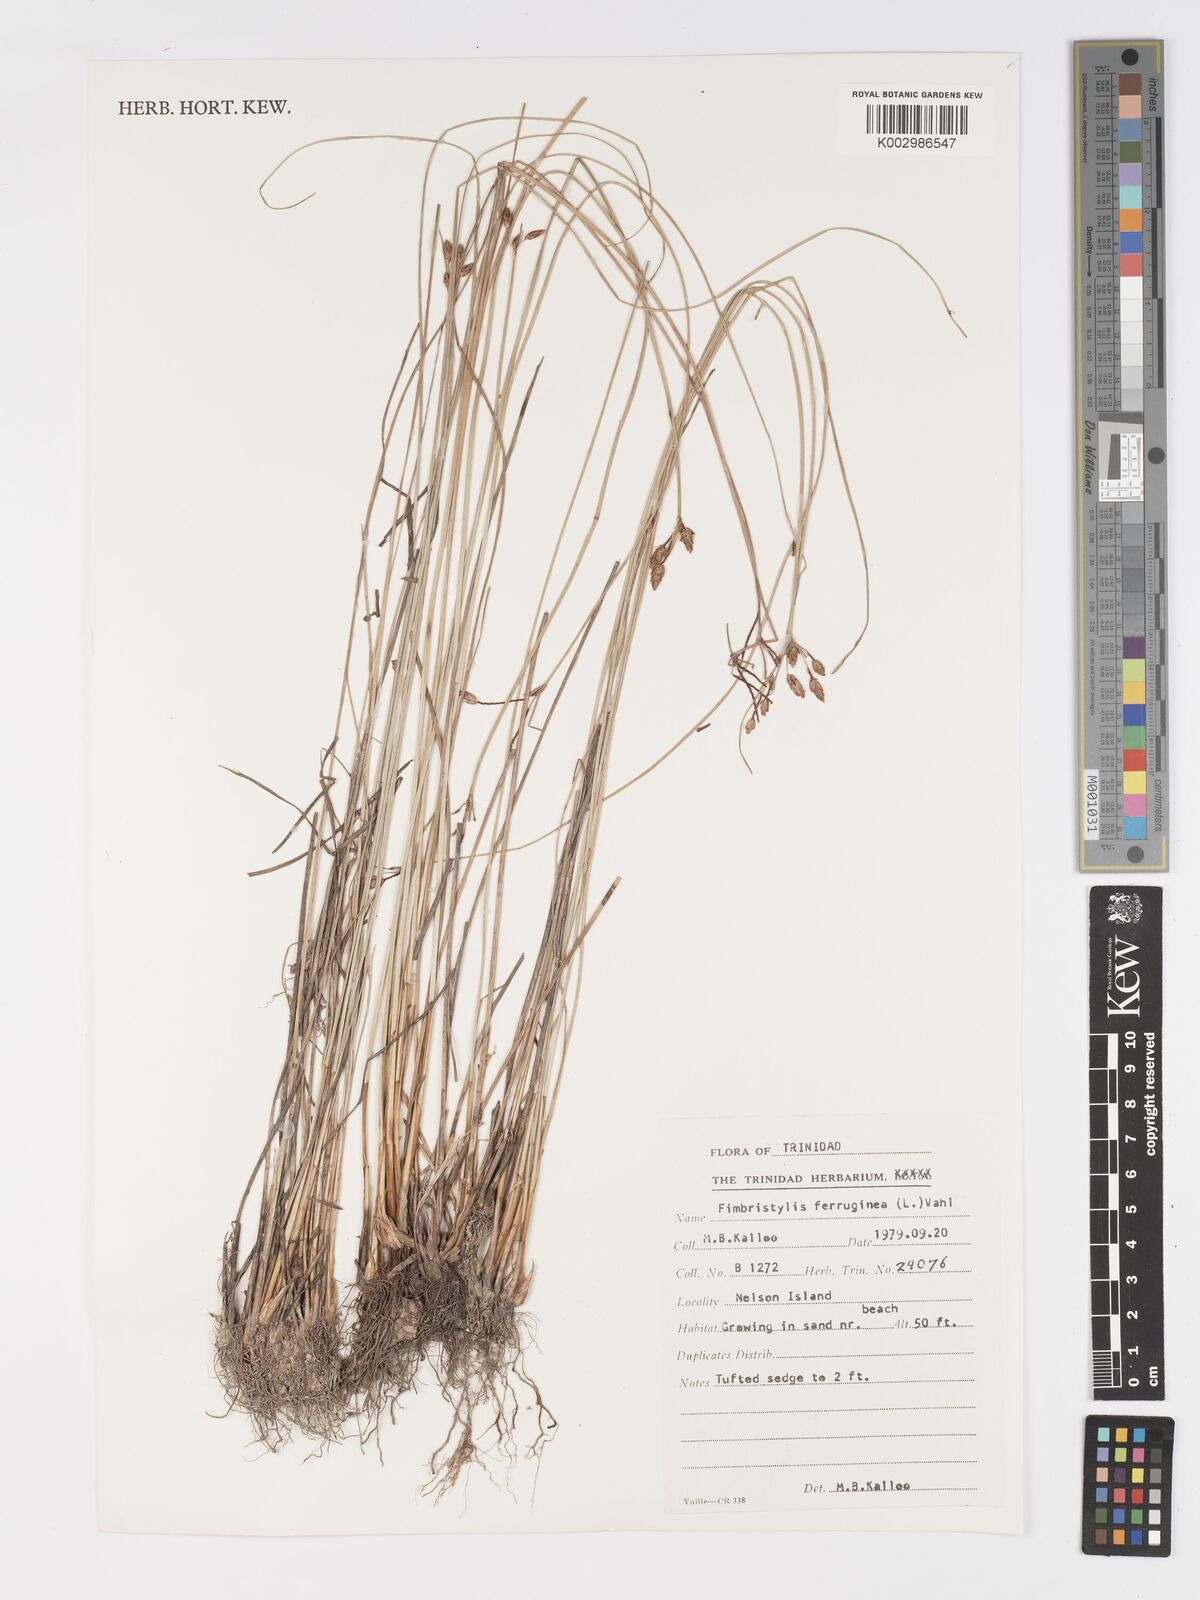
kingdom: Plantae
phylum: Tracheophyta
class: Liliopsida
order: Poales
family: Cyperaceae
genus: Fimbristylis
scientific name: Fimbristylis ferruginea
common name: West indian fimbry
